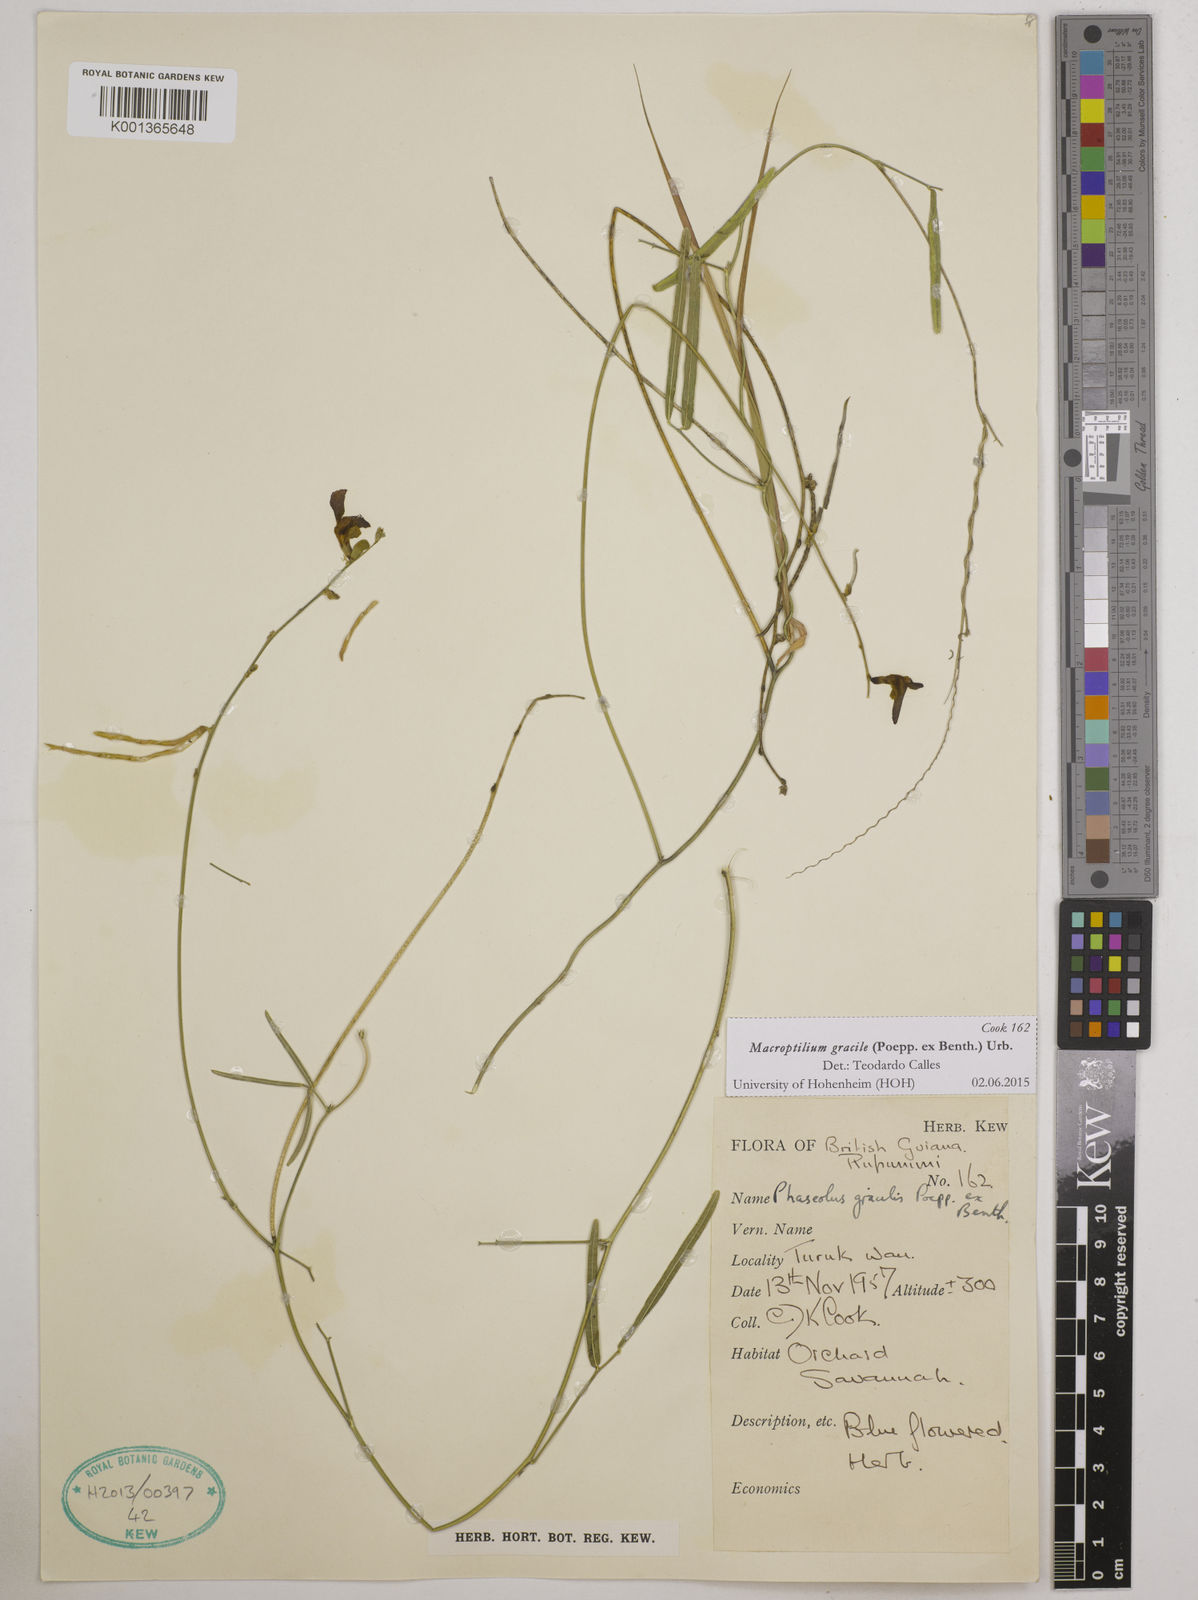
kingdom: Plantae
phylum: Tracheophyta
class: Magnoliopsida
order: Fabales
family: Fabaceae
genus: Macroptilium
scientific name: Macroptilium gracile
